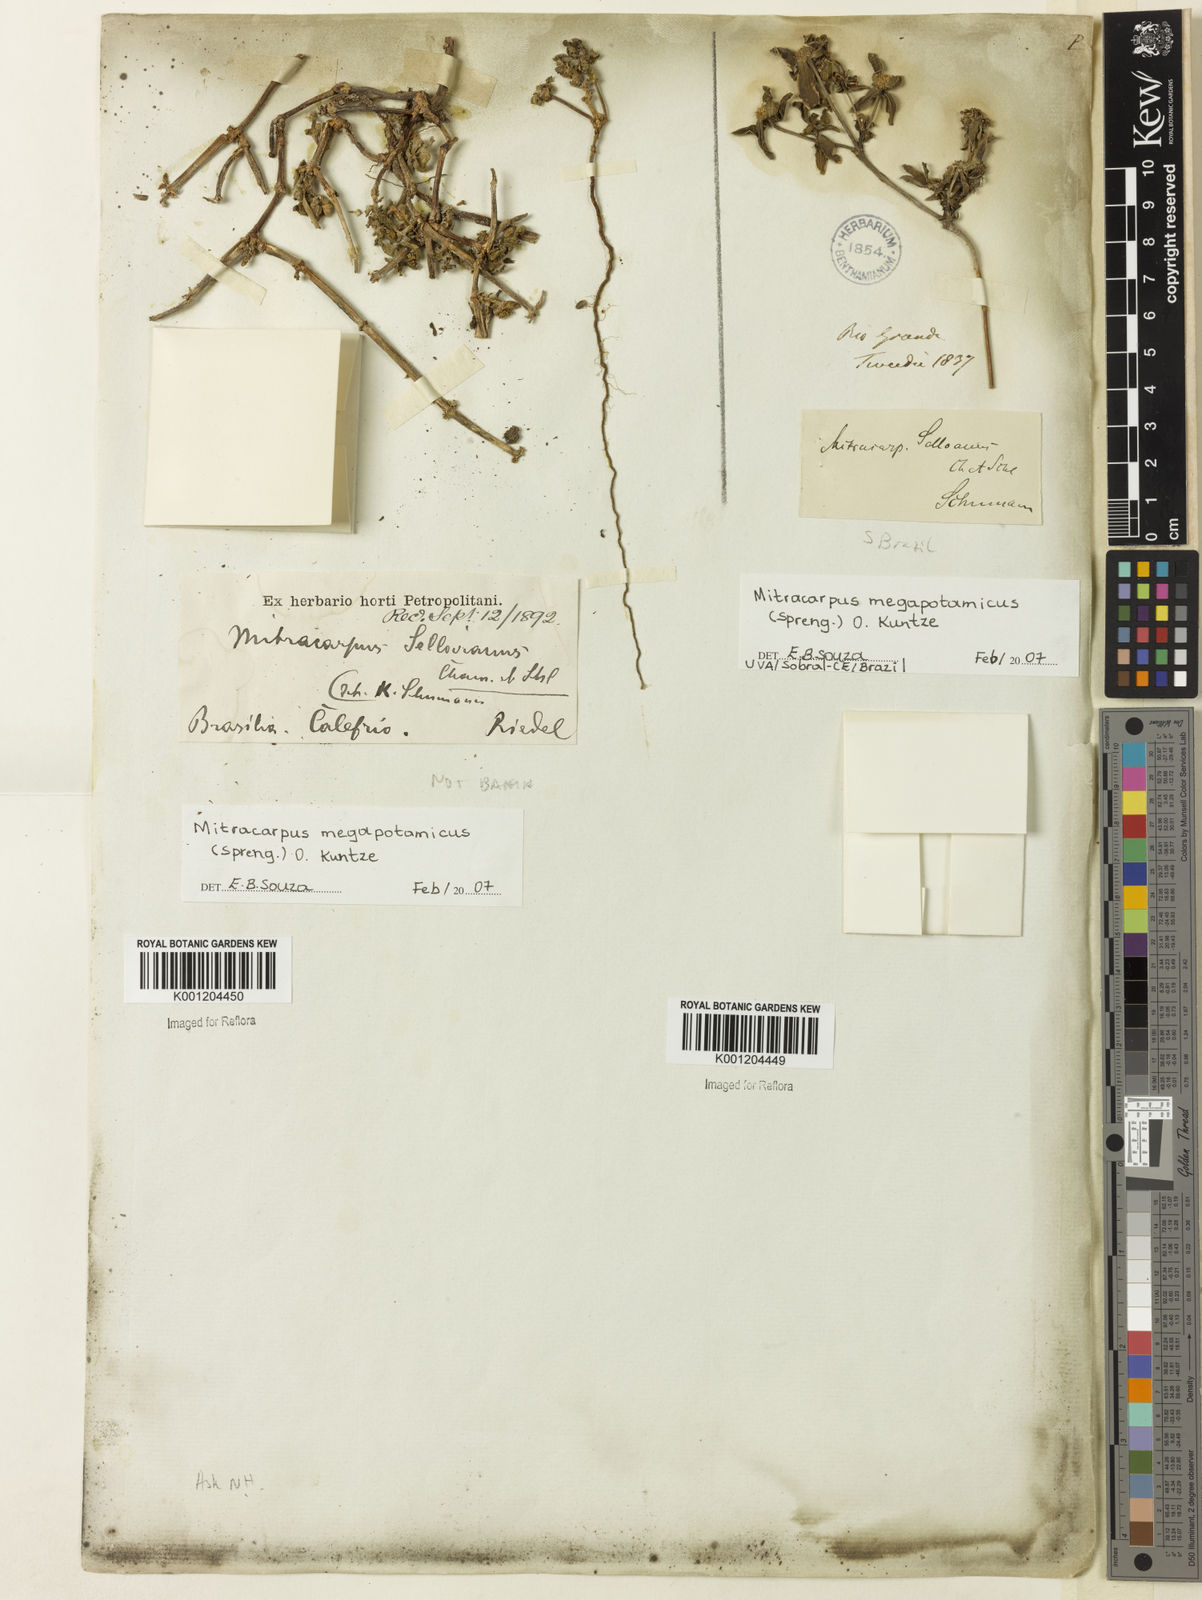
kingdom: Plantae
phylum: Tracheophyta
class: Magnoliopsida
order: Gentianales
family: Rubiaceae
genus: Mitracarpus
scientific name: Mitracarpus megapotamicus
